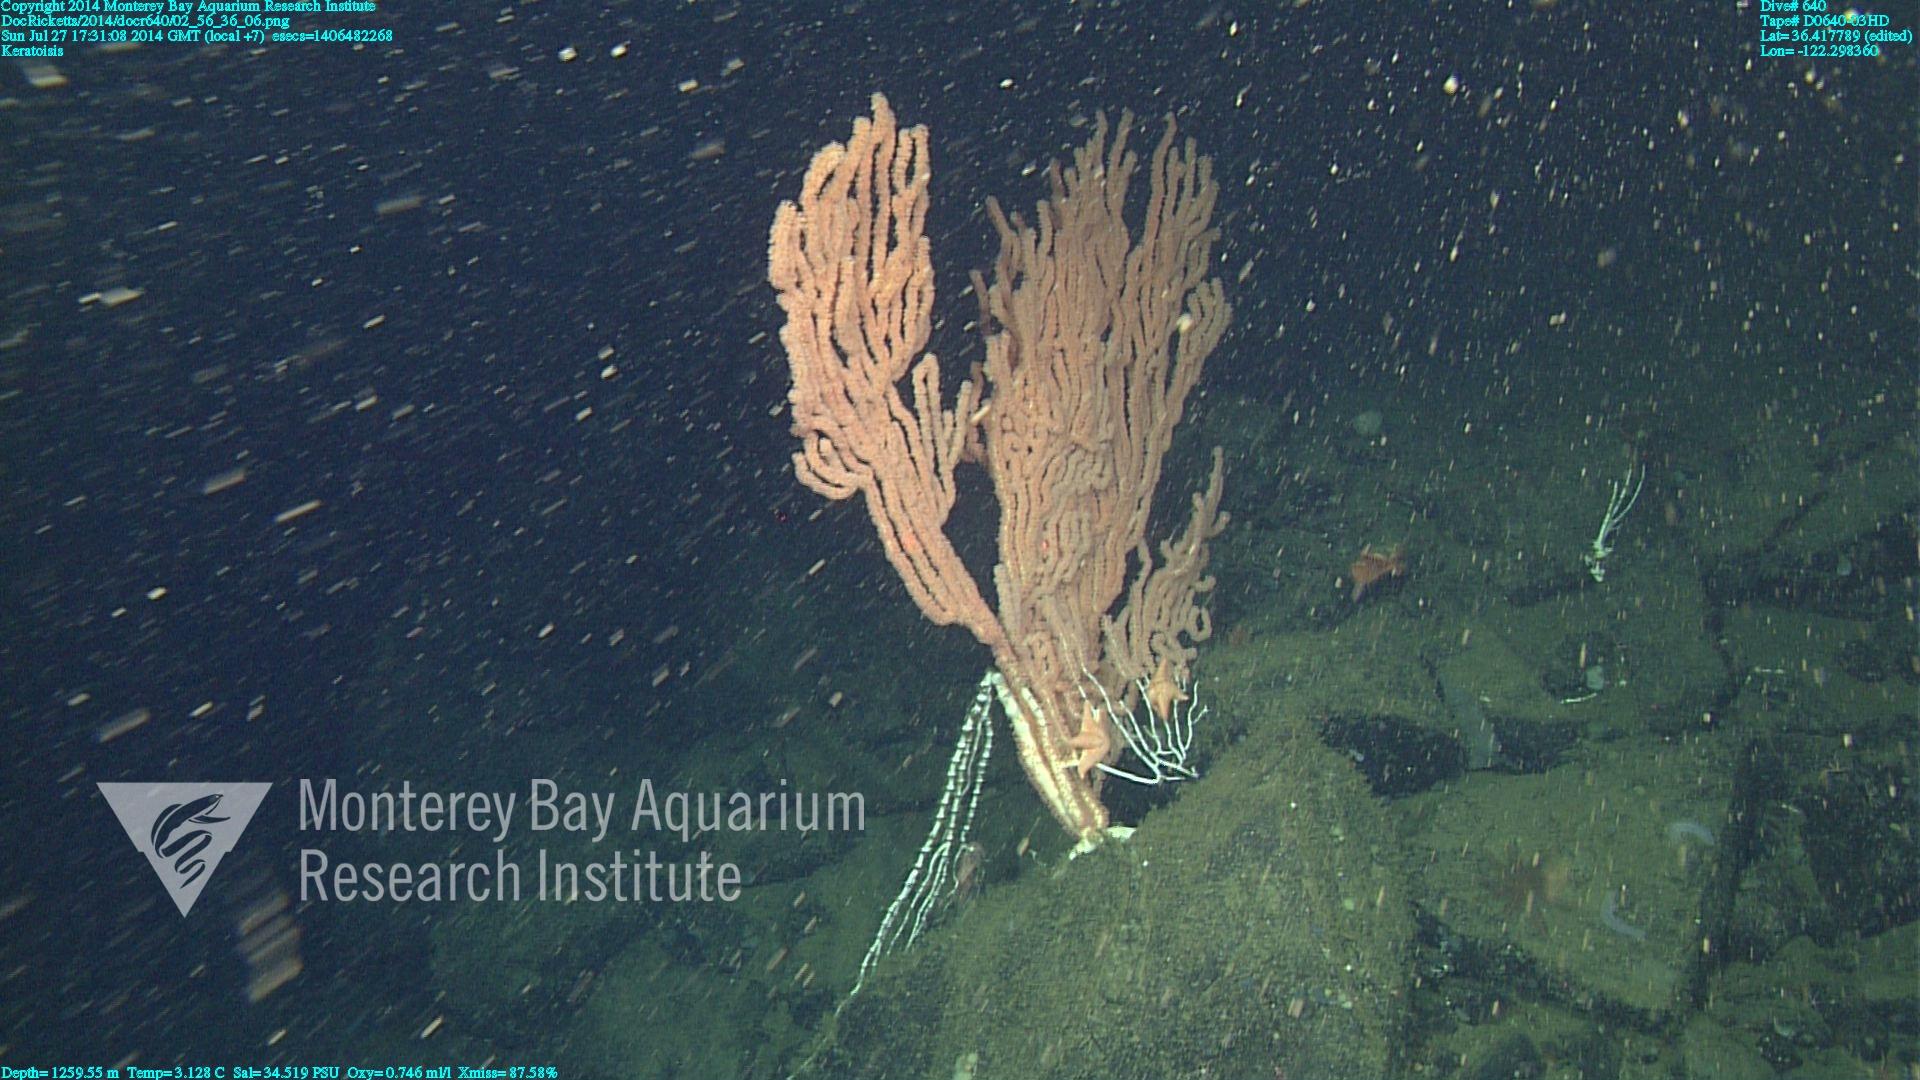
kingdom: Animalia
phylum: Cnidaria
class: Anthozoa
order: Scleralcyonacea
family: Keratoisididae
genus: Keratoisis
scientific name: Keratoisis
